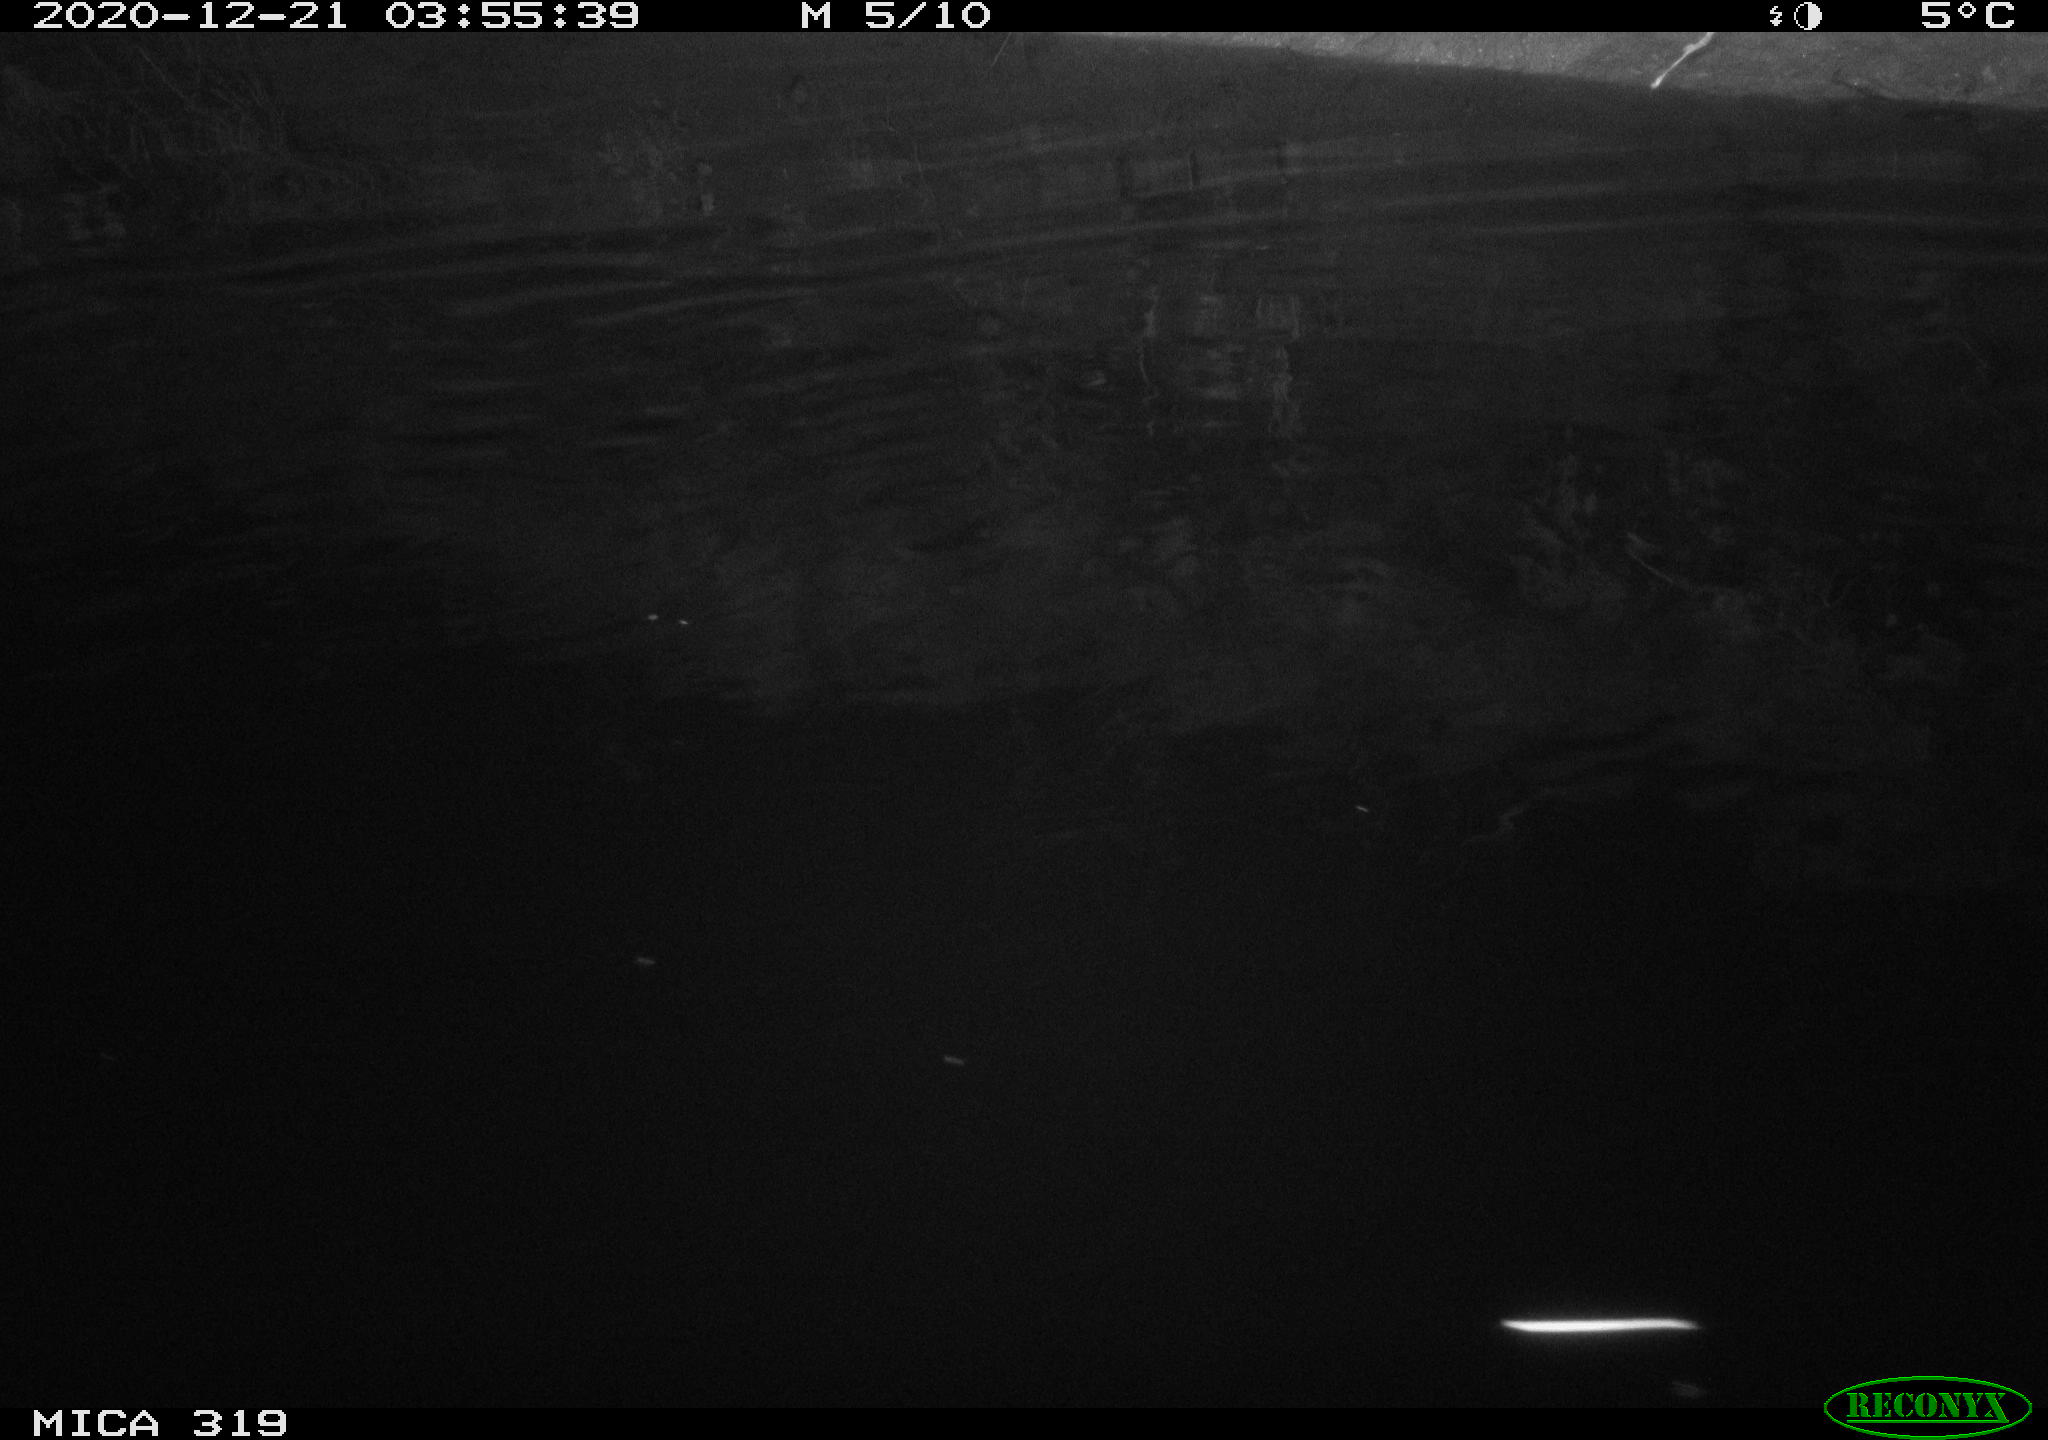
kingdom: Animalia
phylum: Chordata
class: Aves
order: Anseriformes
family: Anatidae
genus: Anas
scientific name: Anas platyrhynchos
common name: Mallard
